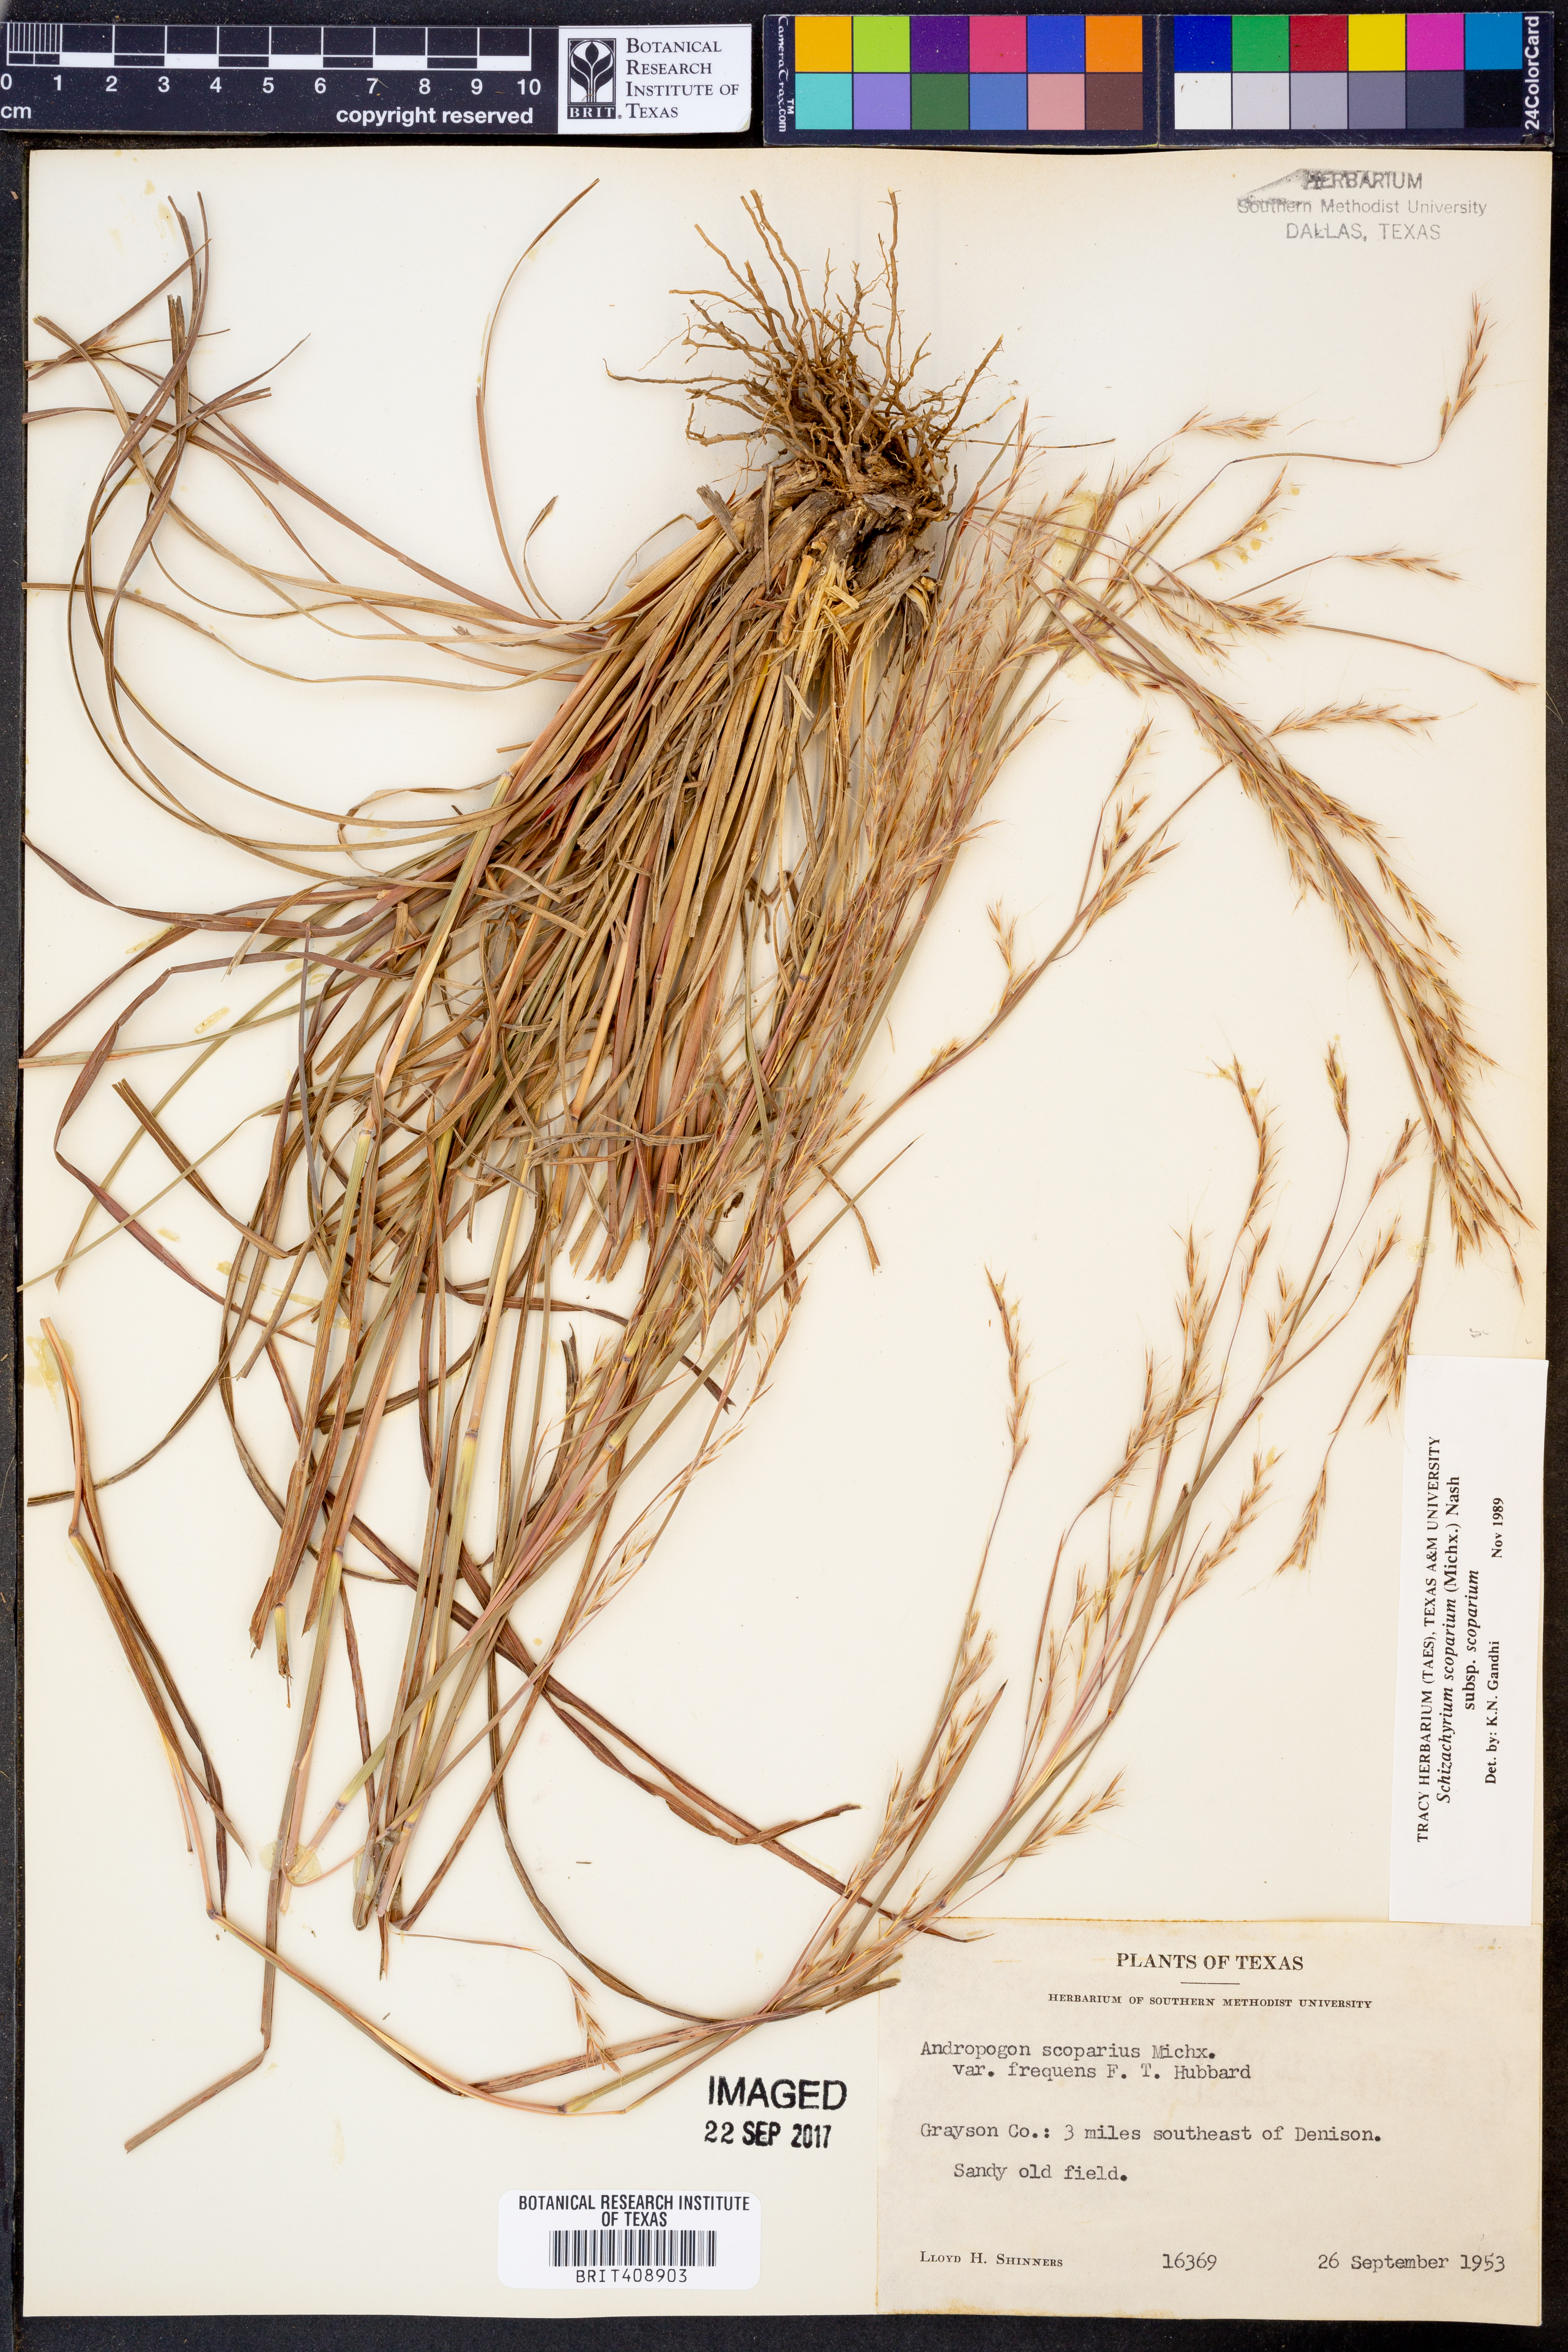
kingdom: Plantae
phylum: Tracheophyta
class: Liliopsida
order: Poales
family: Poaceae
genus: Schizachyrium
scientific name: Schizachyrium scoparium
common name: Little bluestem
